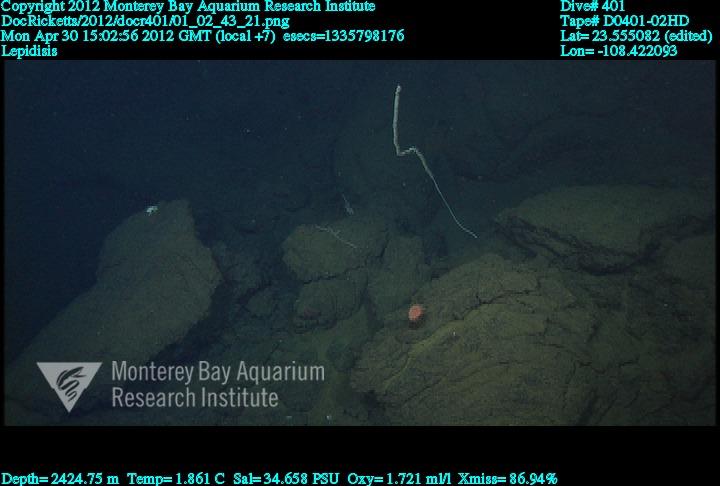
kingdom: Animalia
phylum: Cnidaria
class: Anthozoa
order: Scleralcyonacea
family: Keratoisididae
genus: Lepidisis
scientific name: Lepidisis
